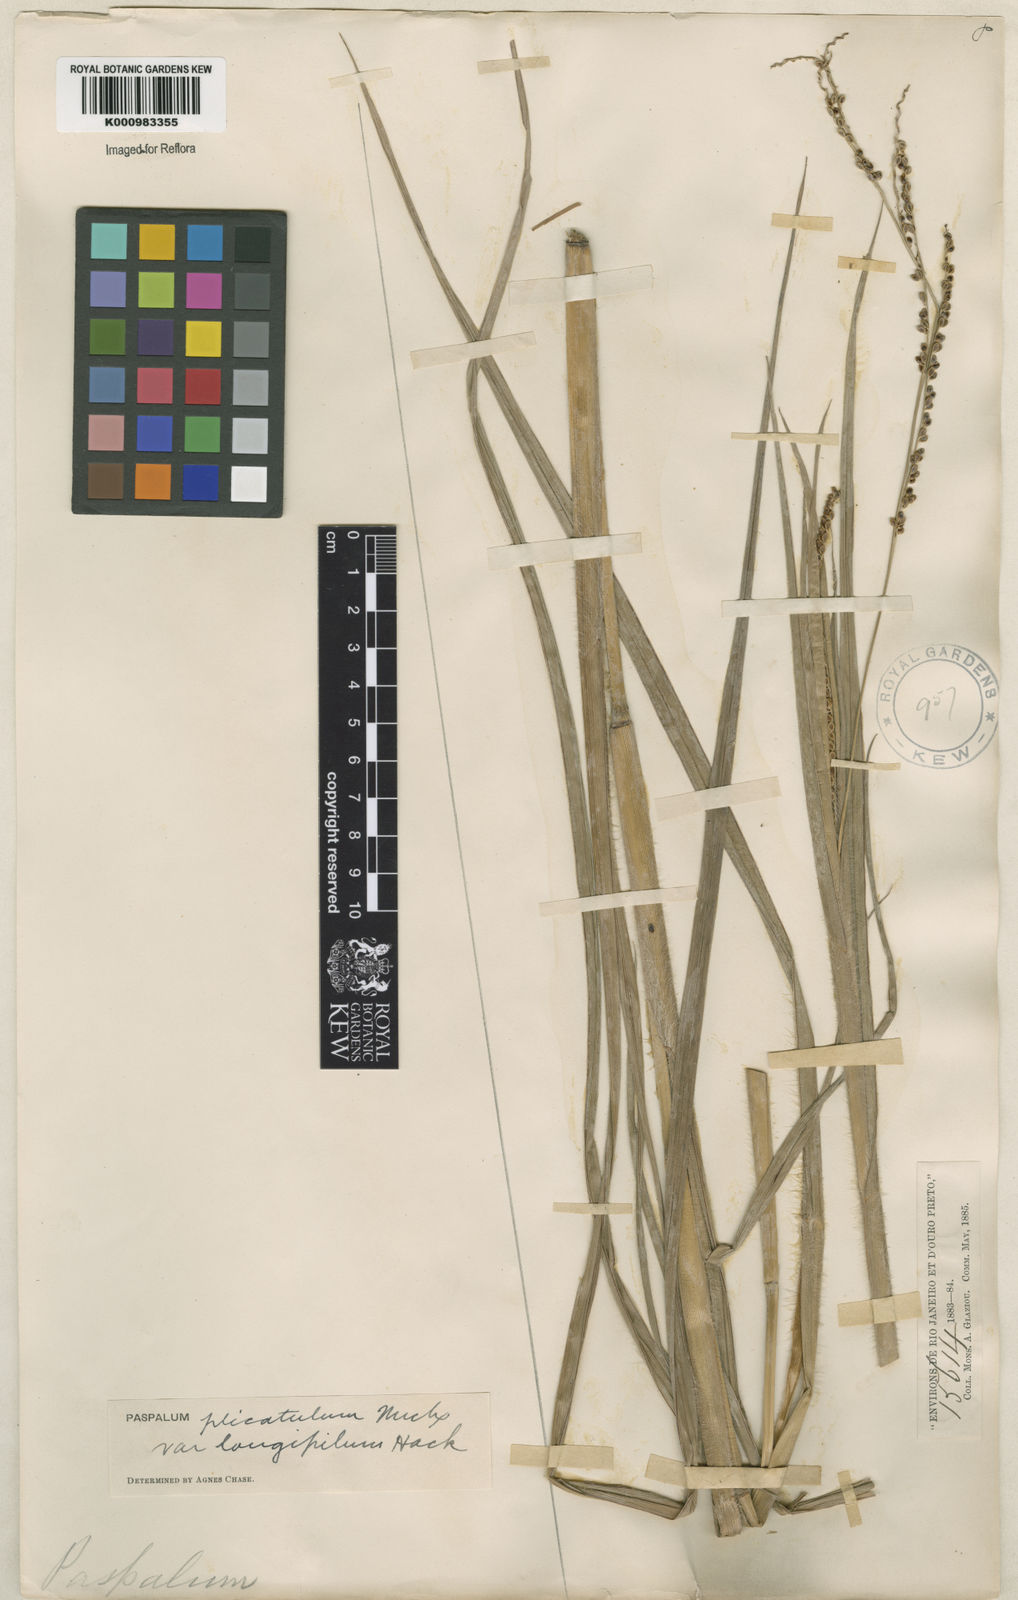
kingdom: Plantae
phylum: Tracheophyta
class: Liliopsida
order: Poales
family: Poaceae
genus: Paspalum
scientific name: Paspalum plicatulum
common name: Top paspalum
